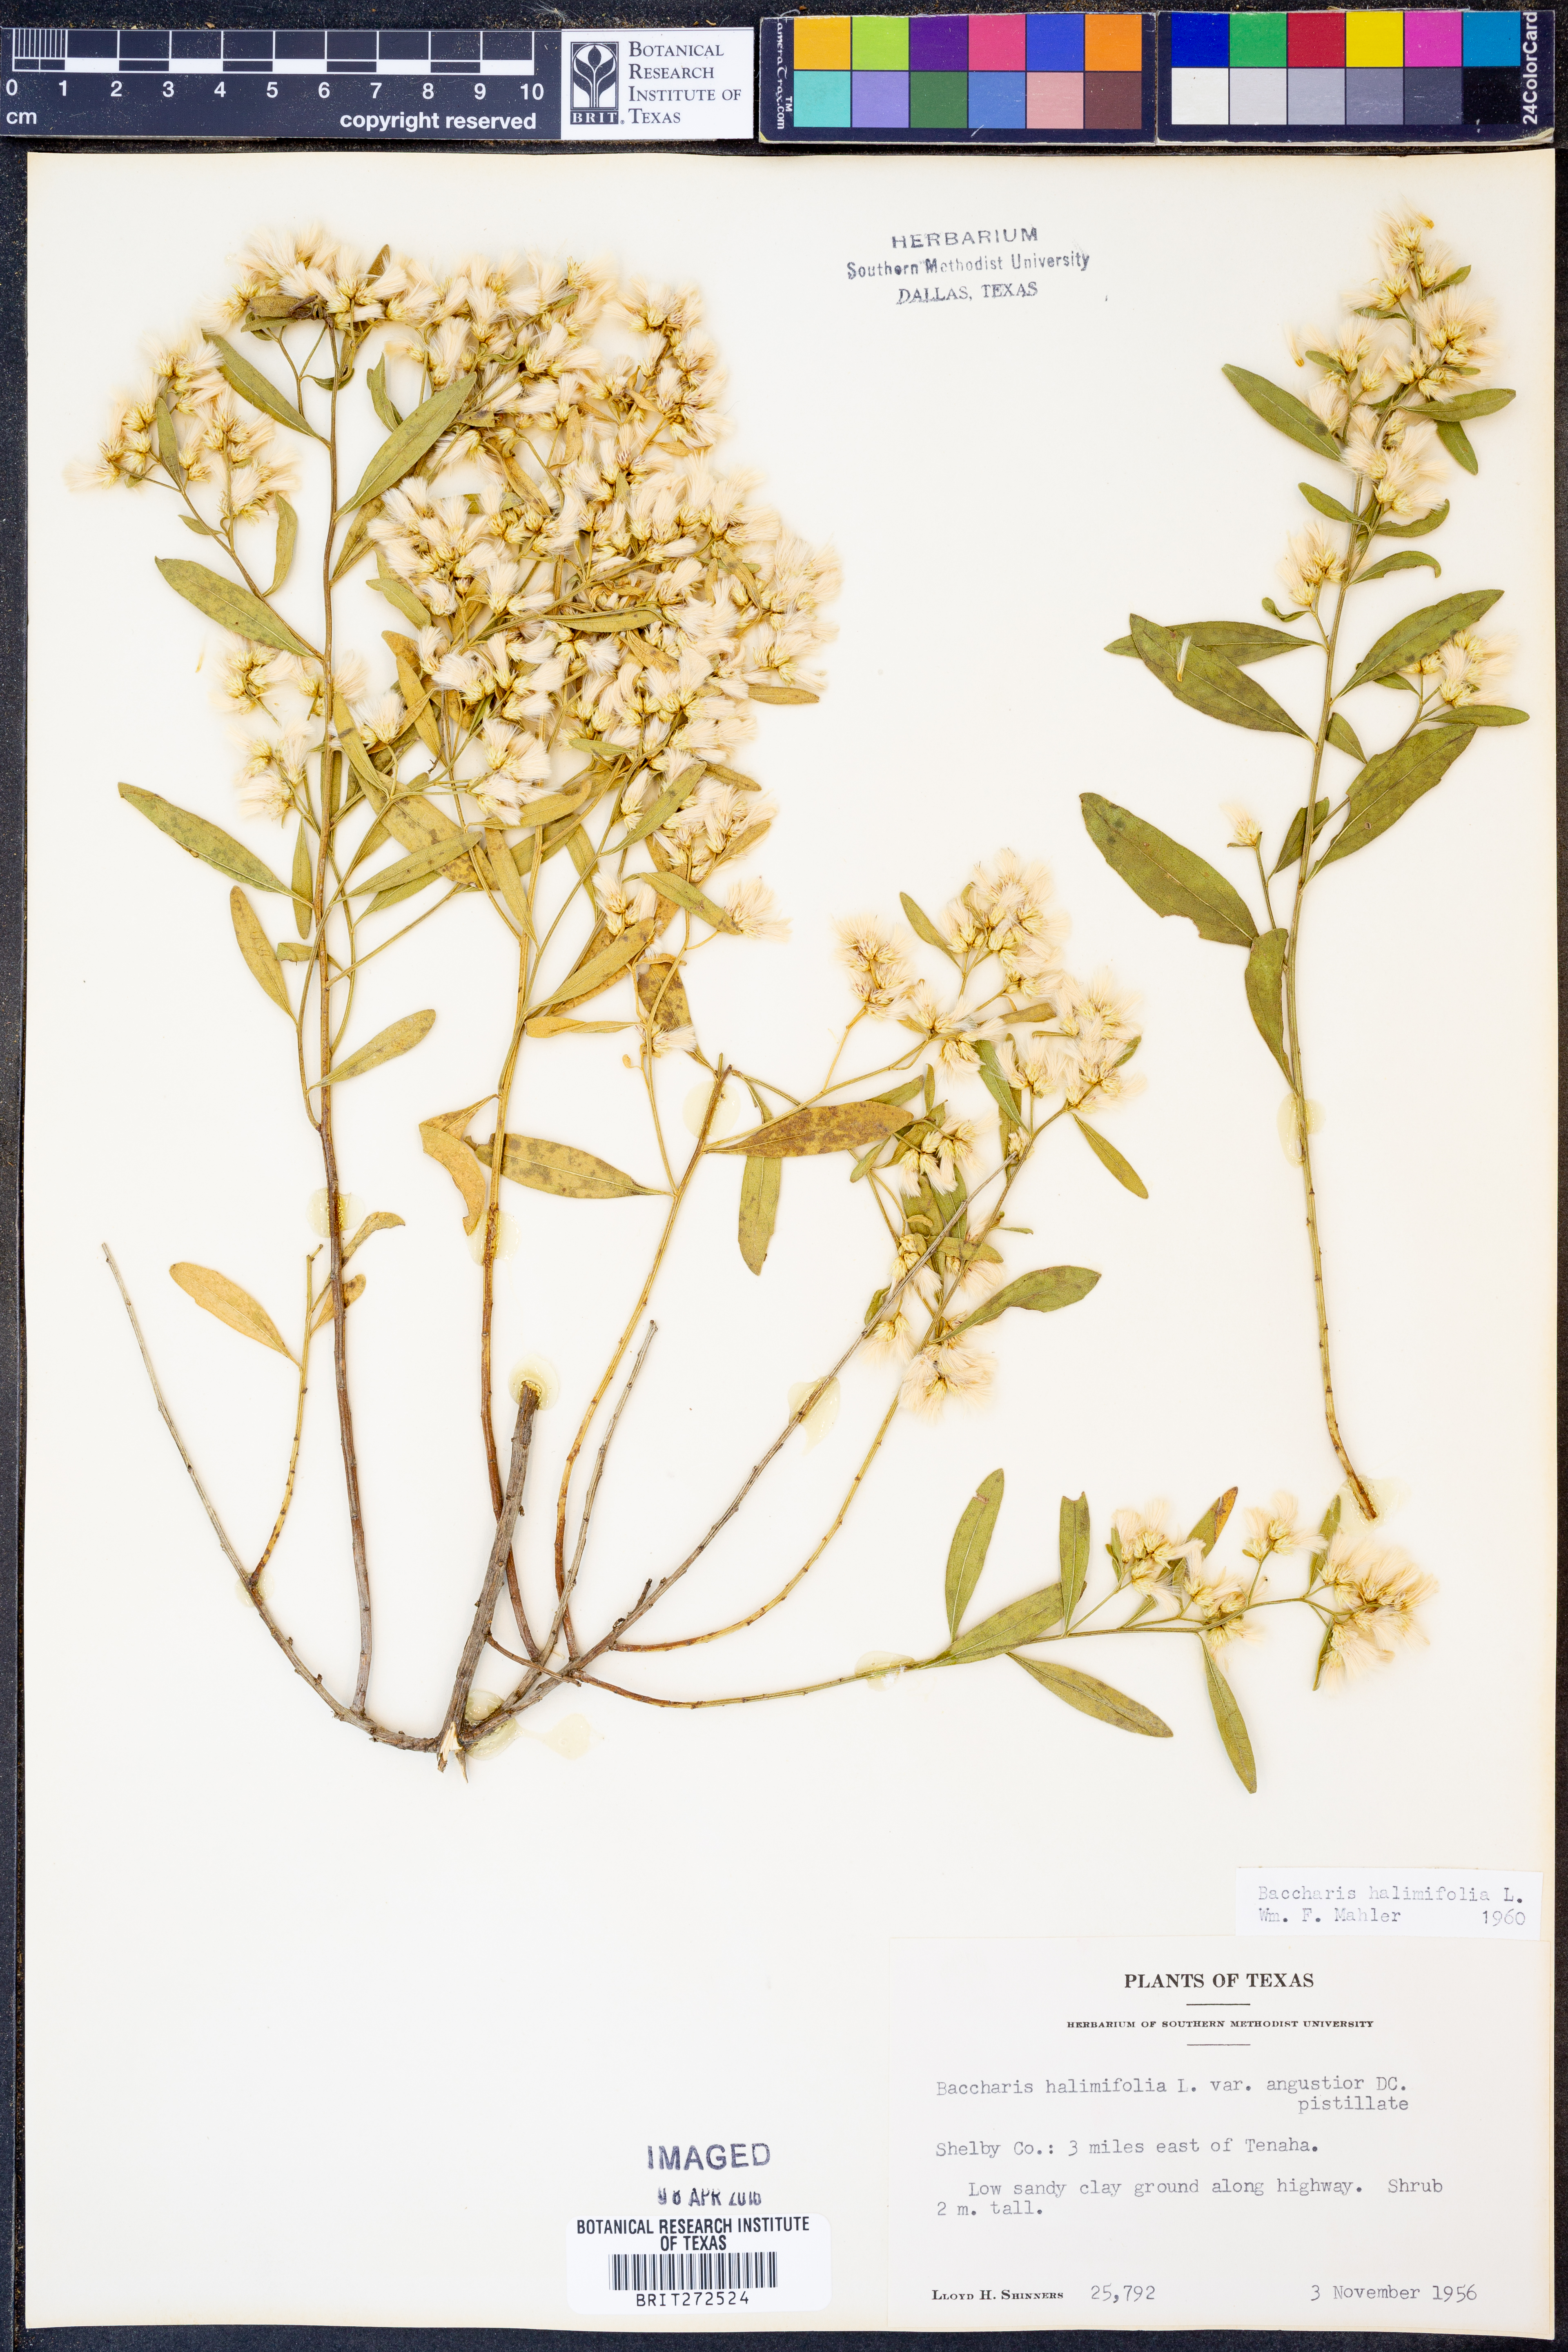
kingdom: Plantae
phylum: Tracheophyta
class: Magnoliopsida
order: Asterales
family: Asteraceae
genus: Nidorella
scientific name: Nidorella ivifolia
